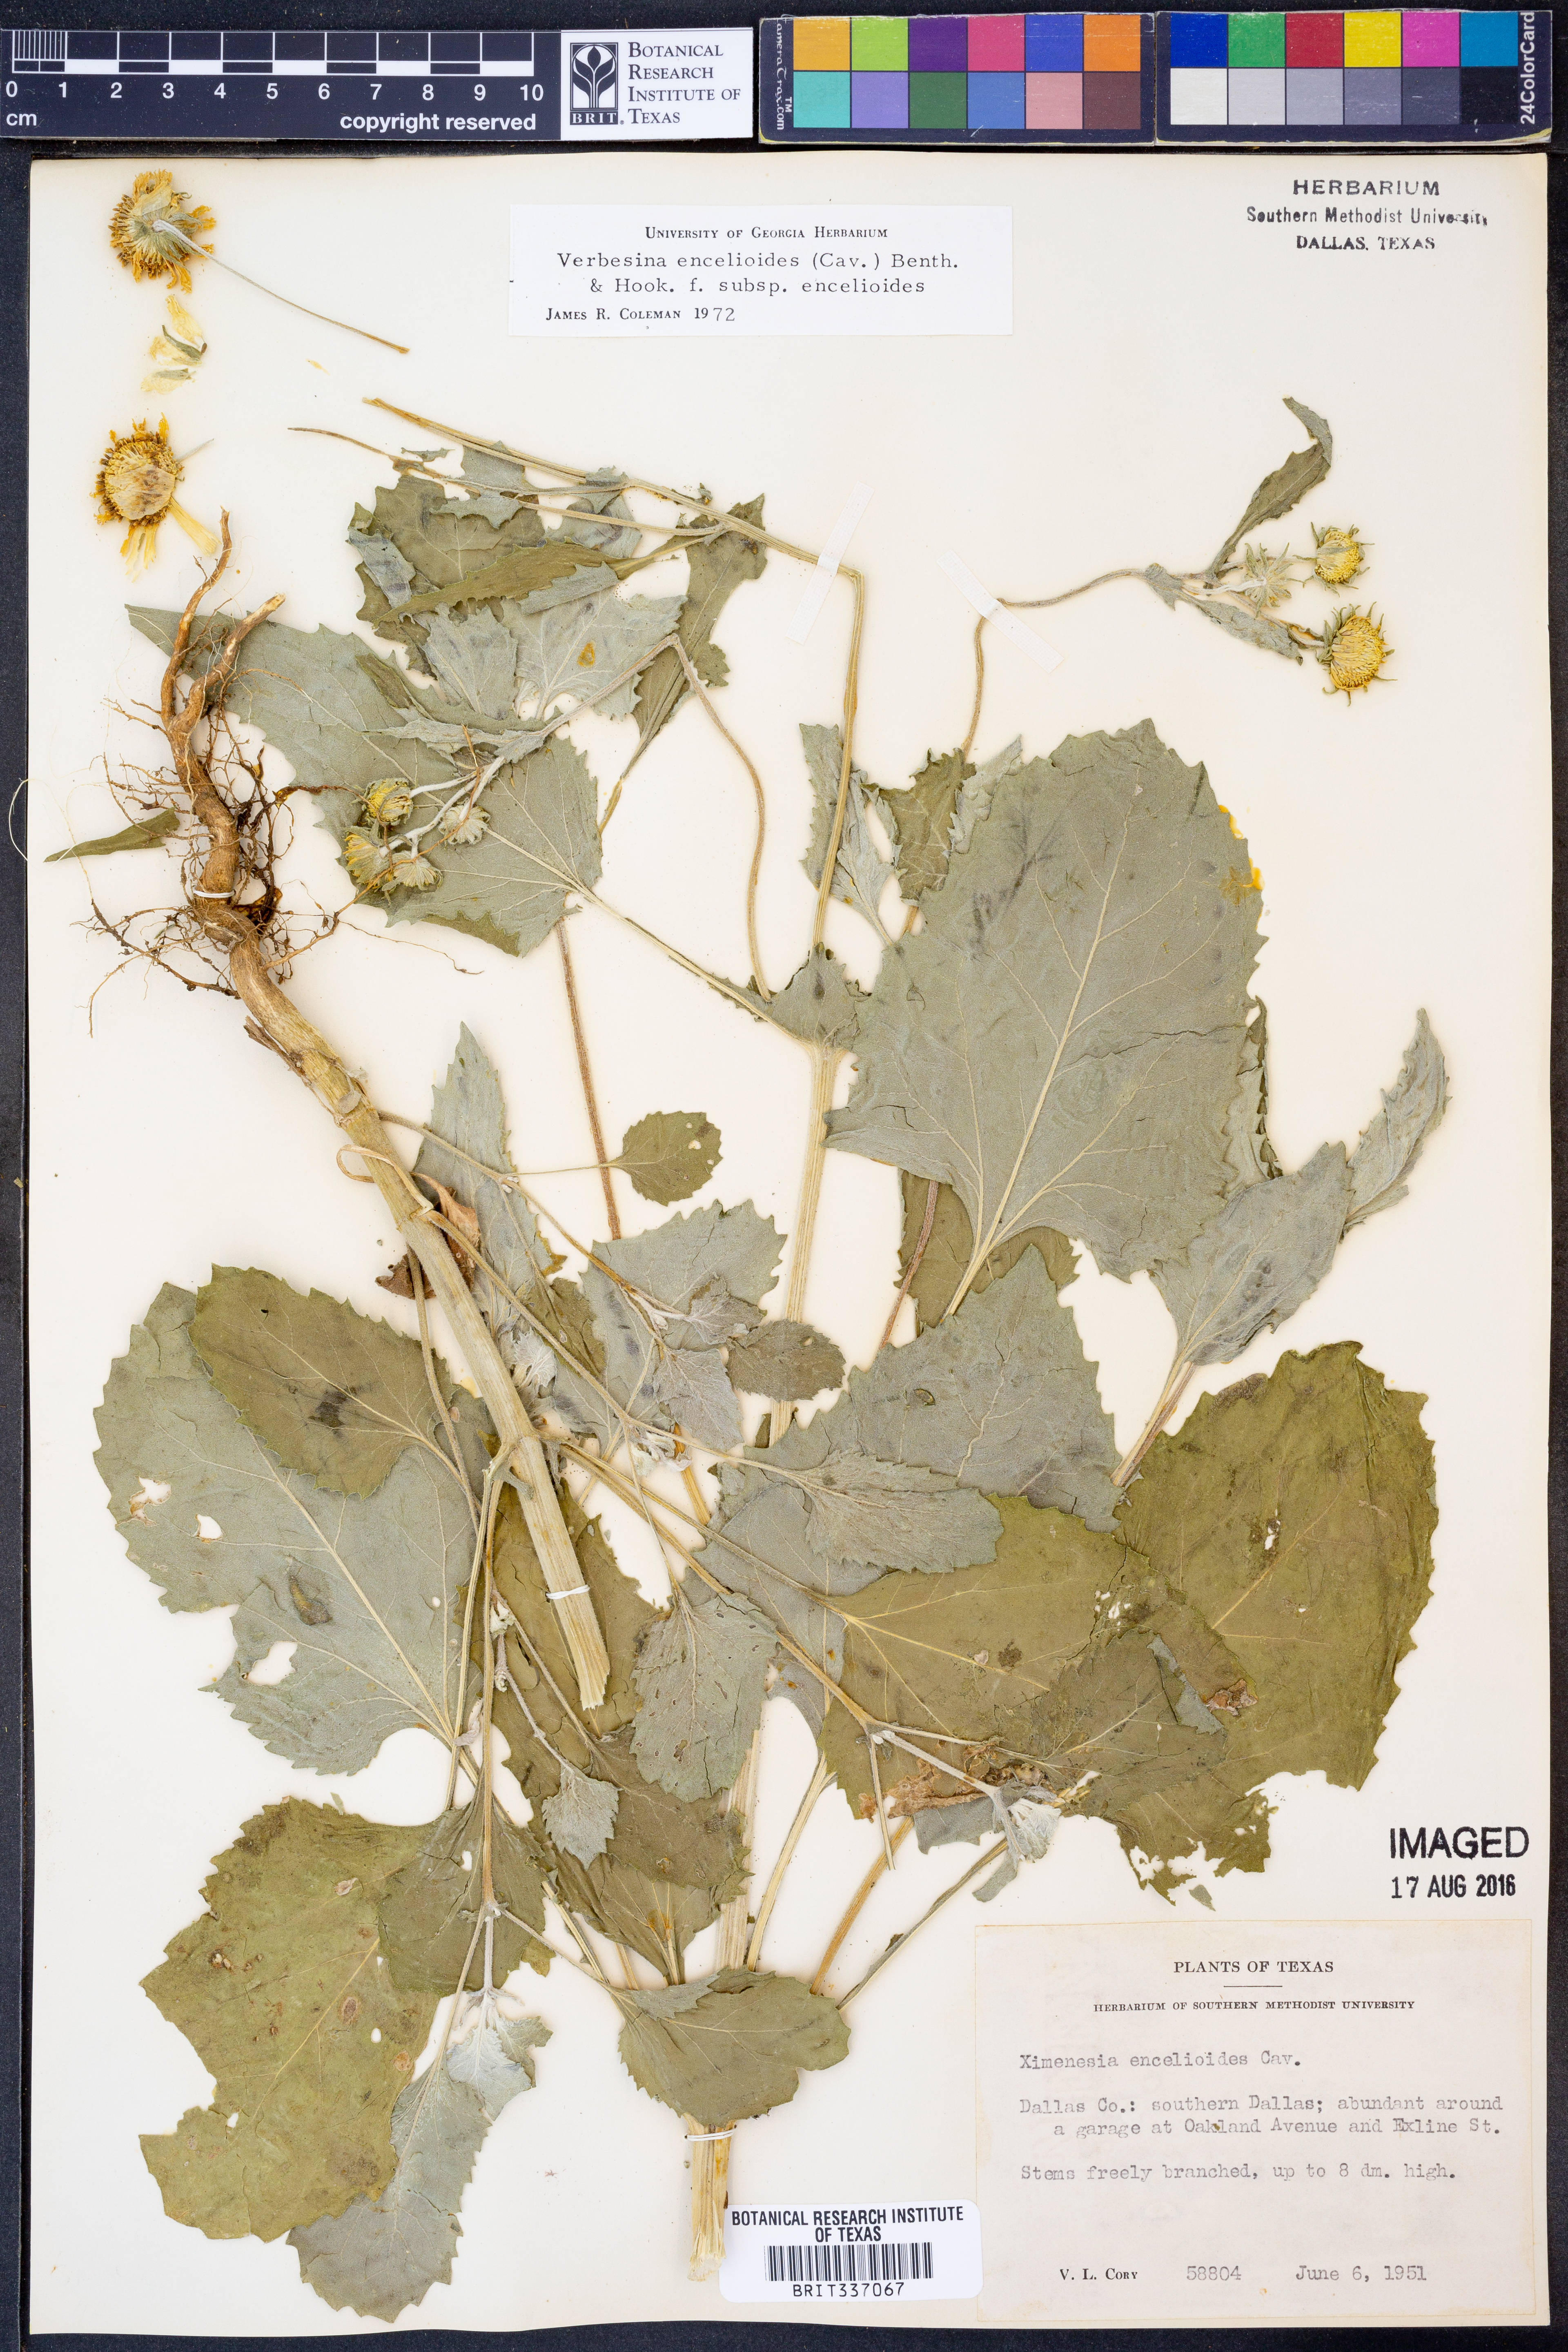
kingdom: Plantae
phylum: Tracheophyta
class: Magnoliopsida
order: Asterales
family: Asteraceae
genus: Verbesina
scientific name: Verbesina encelioides
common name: Golden crownbeard
